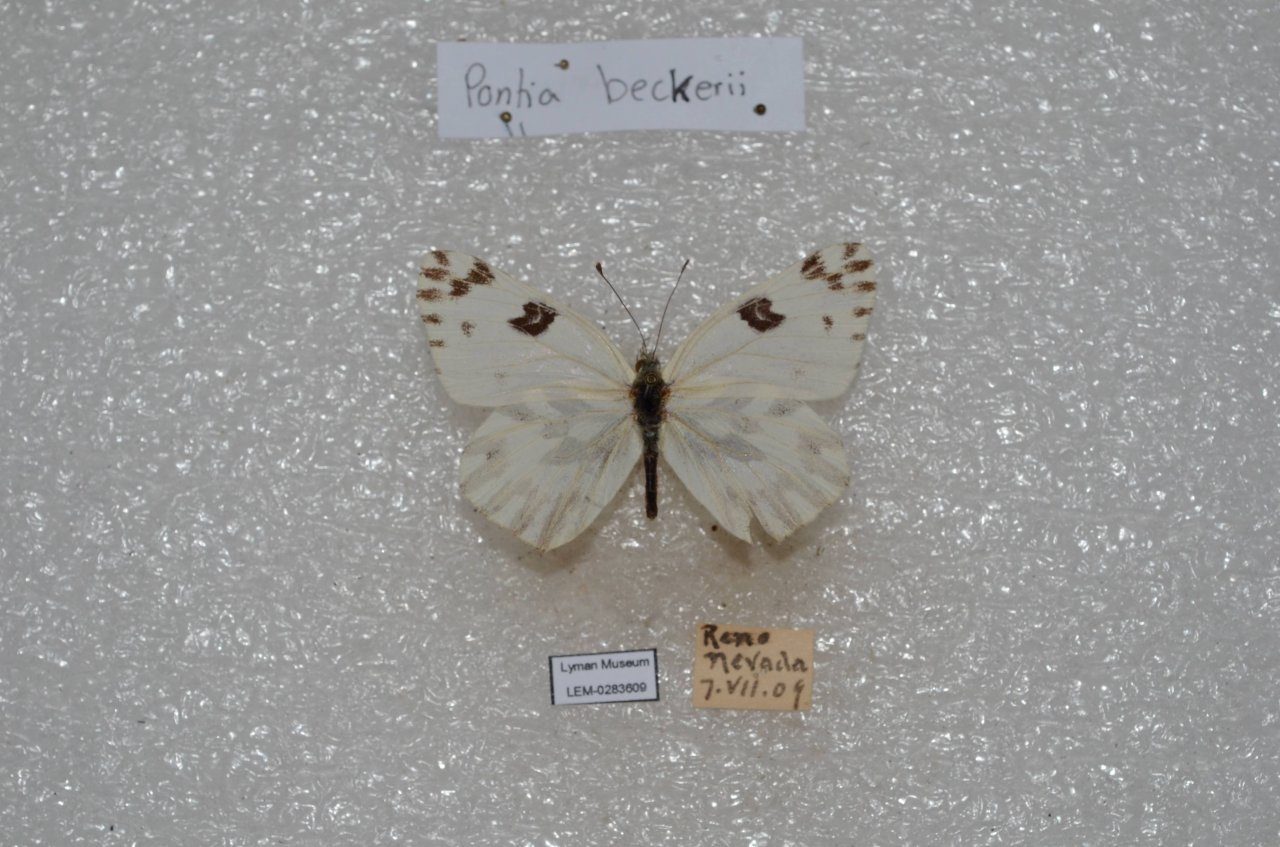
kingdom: Animalia
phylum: Arthropoda
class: Insecta
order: Lepidoptera
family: Pieridae
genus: Pontia
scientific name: Pontia beckerii
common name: Becker's White
